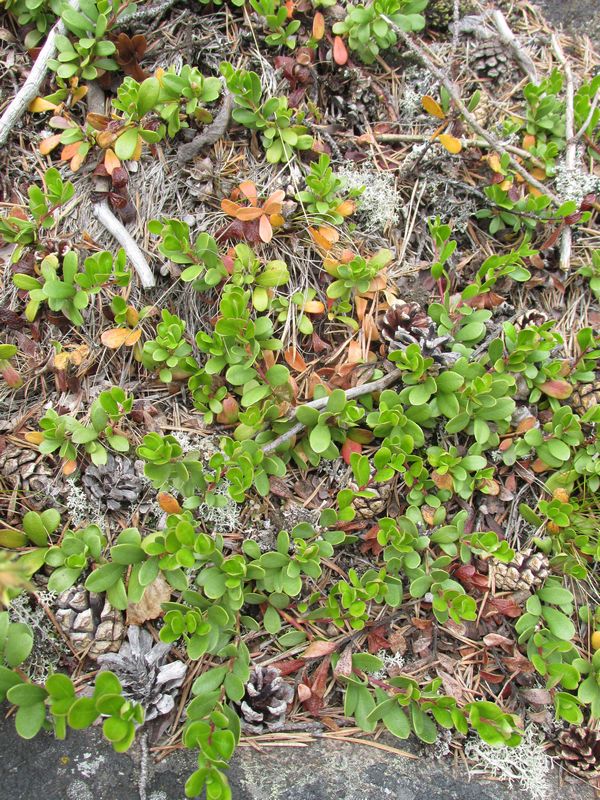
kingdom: Plantae
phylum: Tracheophyta
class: Magnoliopsida
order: Ericales
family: Ericaceae
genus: Arctostaphylos
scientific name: Arctostaphylos uva-ursi
